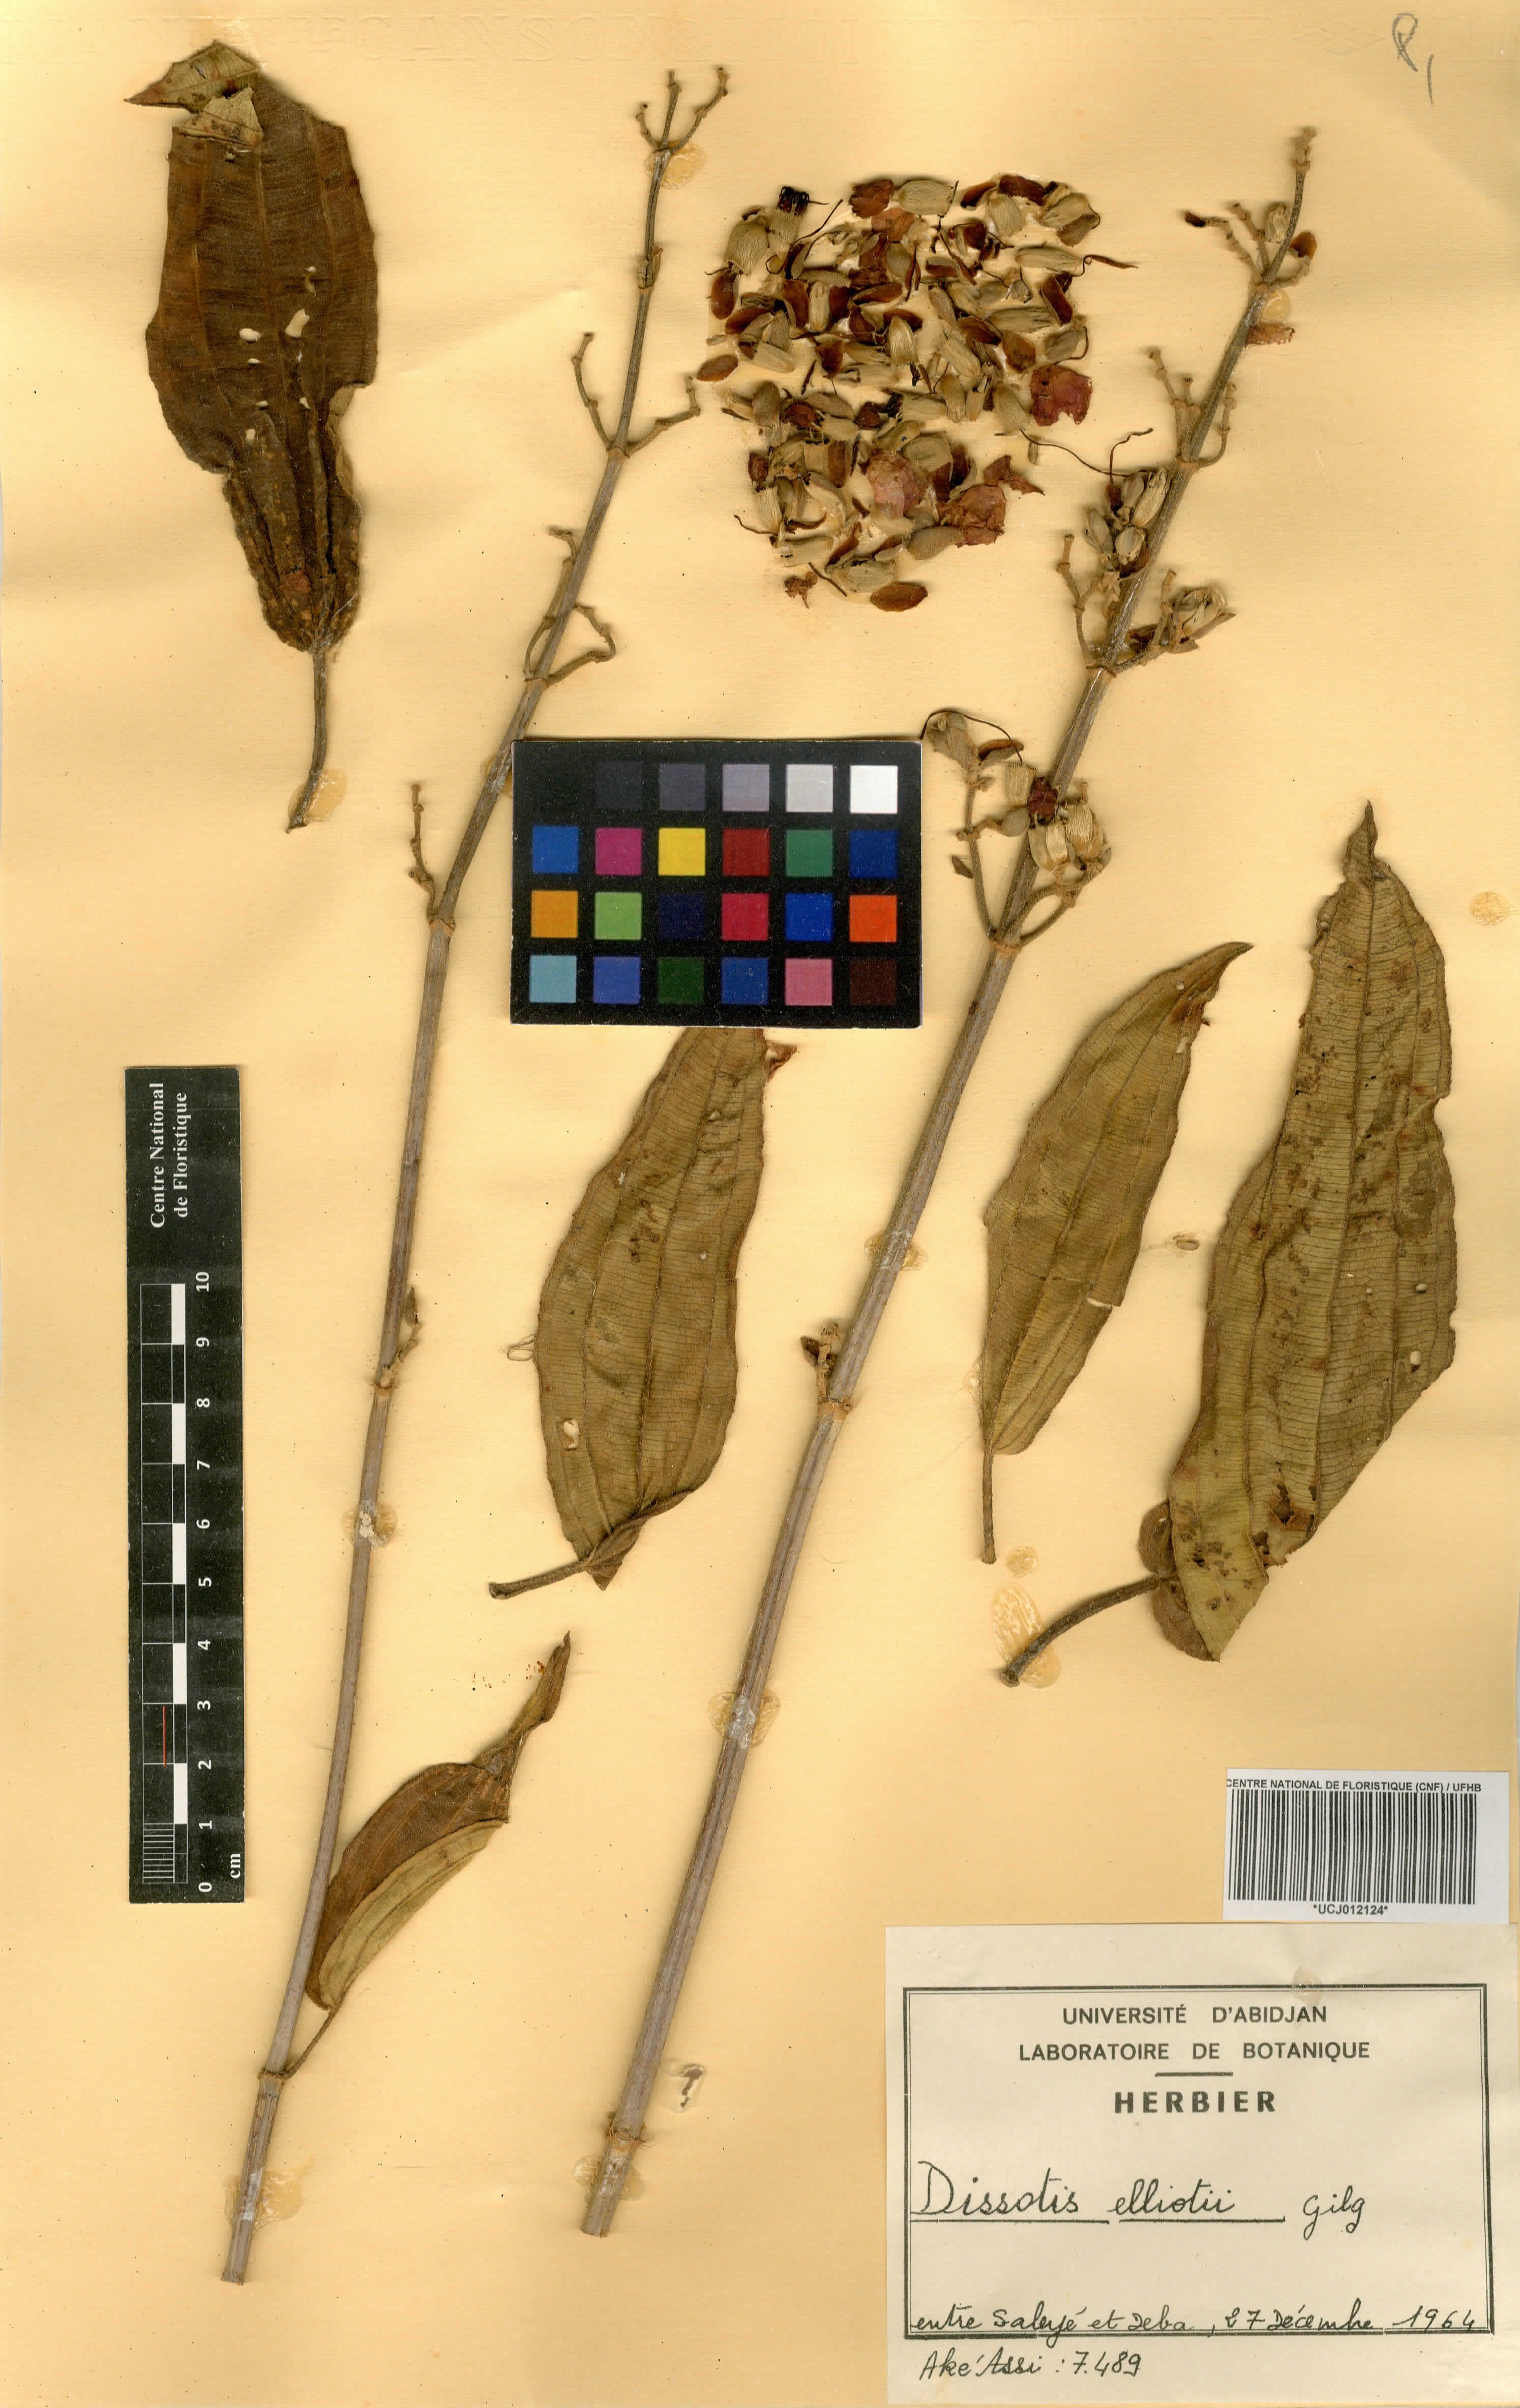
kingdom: Plantae
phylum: Tracheophyta
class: Magnoliopsida
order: Myrtales
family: Melastomataceae
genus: Rosettea
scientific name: Rosettea elliotii
